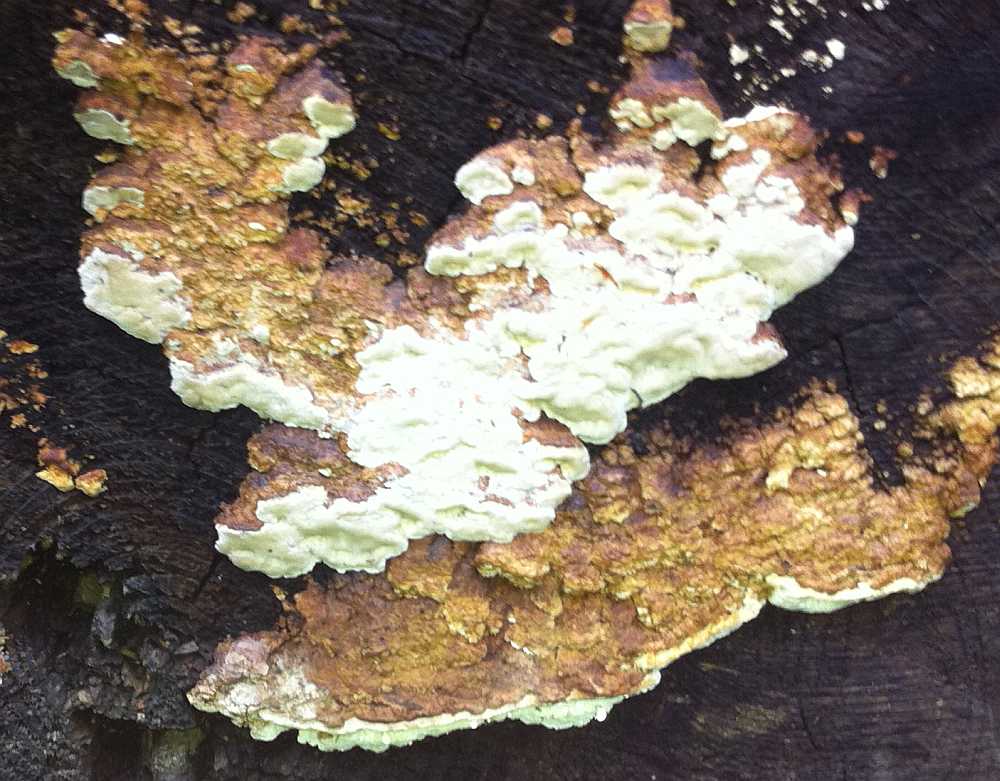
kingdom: Fungi
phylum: Basidiomycota
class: Agaricomycetes
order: Polyporales
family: Fomitopsidaceae
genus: Neoantrodia
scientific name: Neoantrodia serialis
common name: række-sejporesvamp
